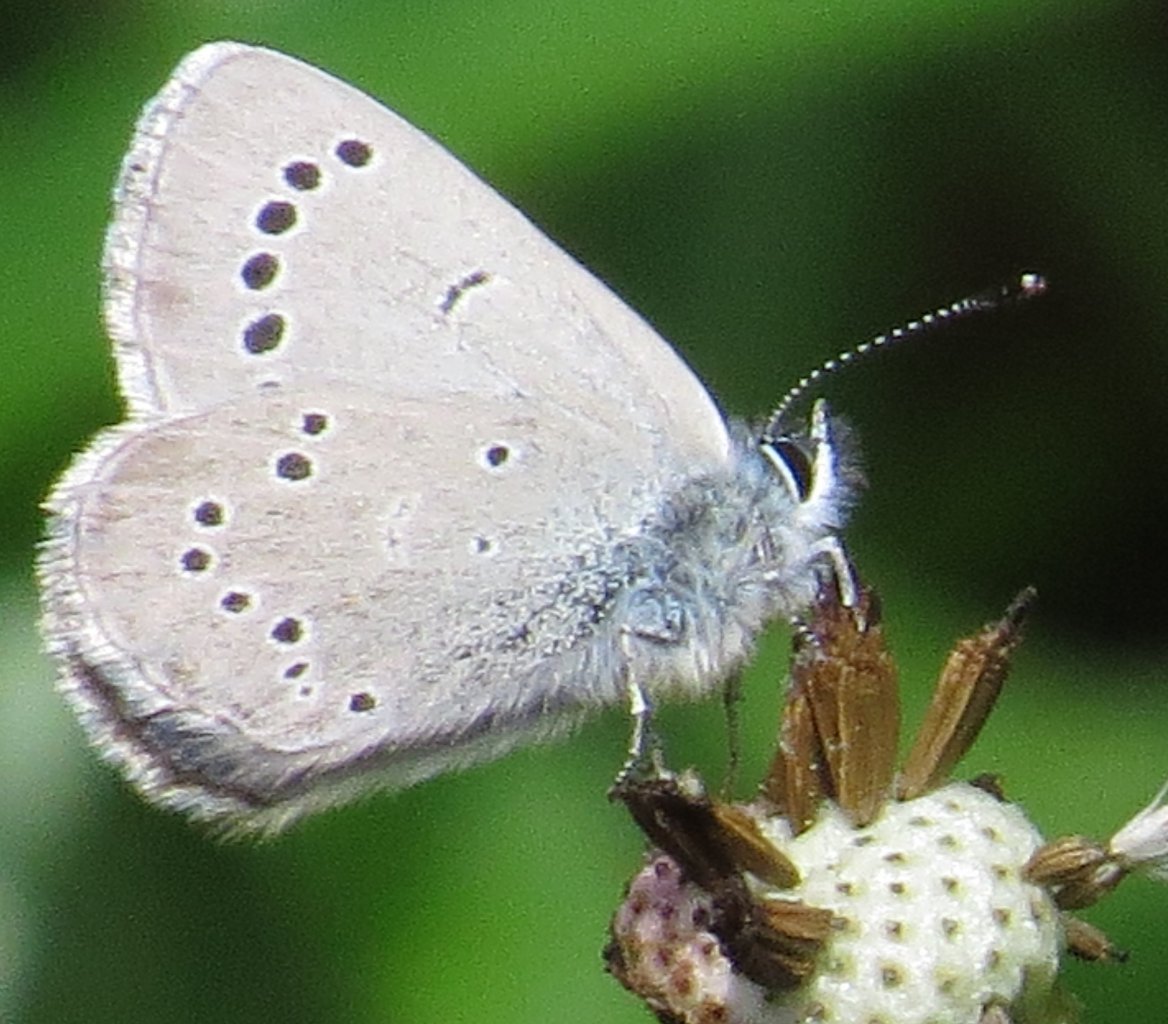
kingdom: Animalia
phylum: Arthropoda
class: Insecta
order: Lepidoptera
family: Lycaenidae
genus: Glaucopsyche
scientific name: Glaucopsyche lygdamus
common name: Silvery Blue
